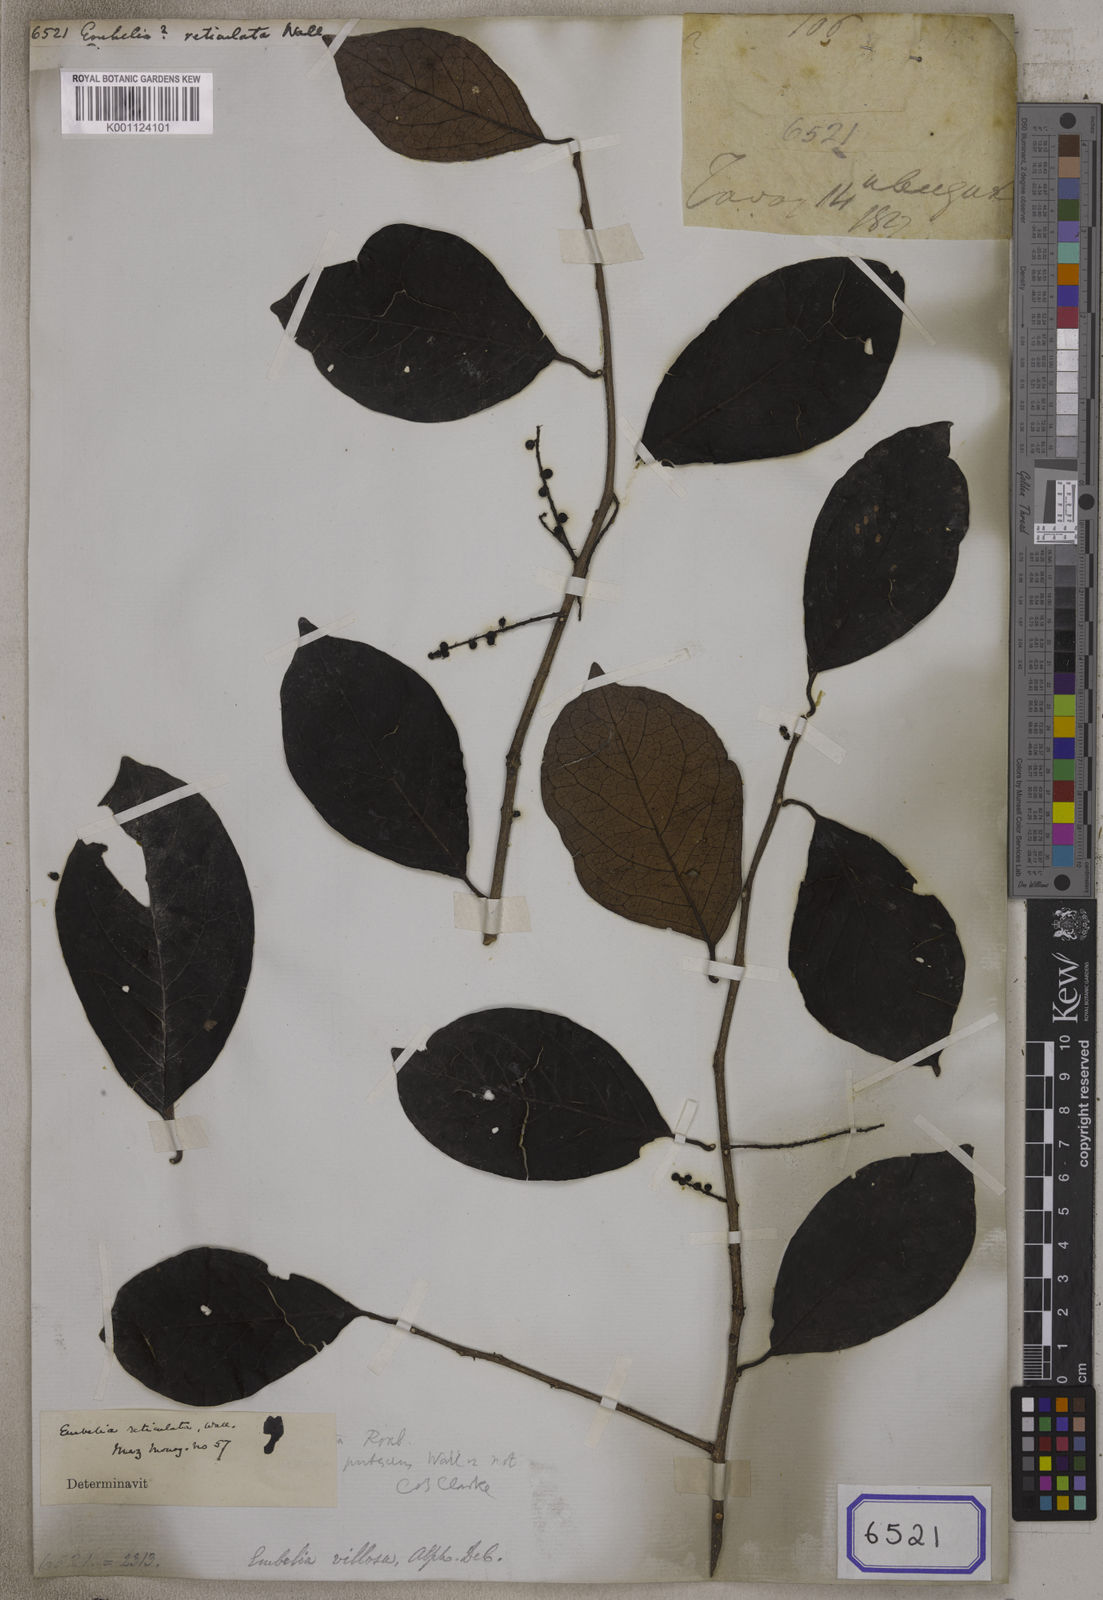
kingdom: Plantae
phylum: Tracheophyta
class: Magnoliopsida
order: Ericales
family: Primulaceae
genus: Embelia
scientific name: Embelia
